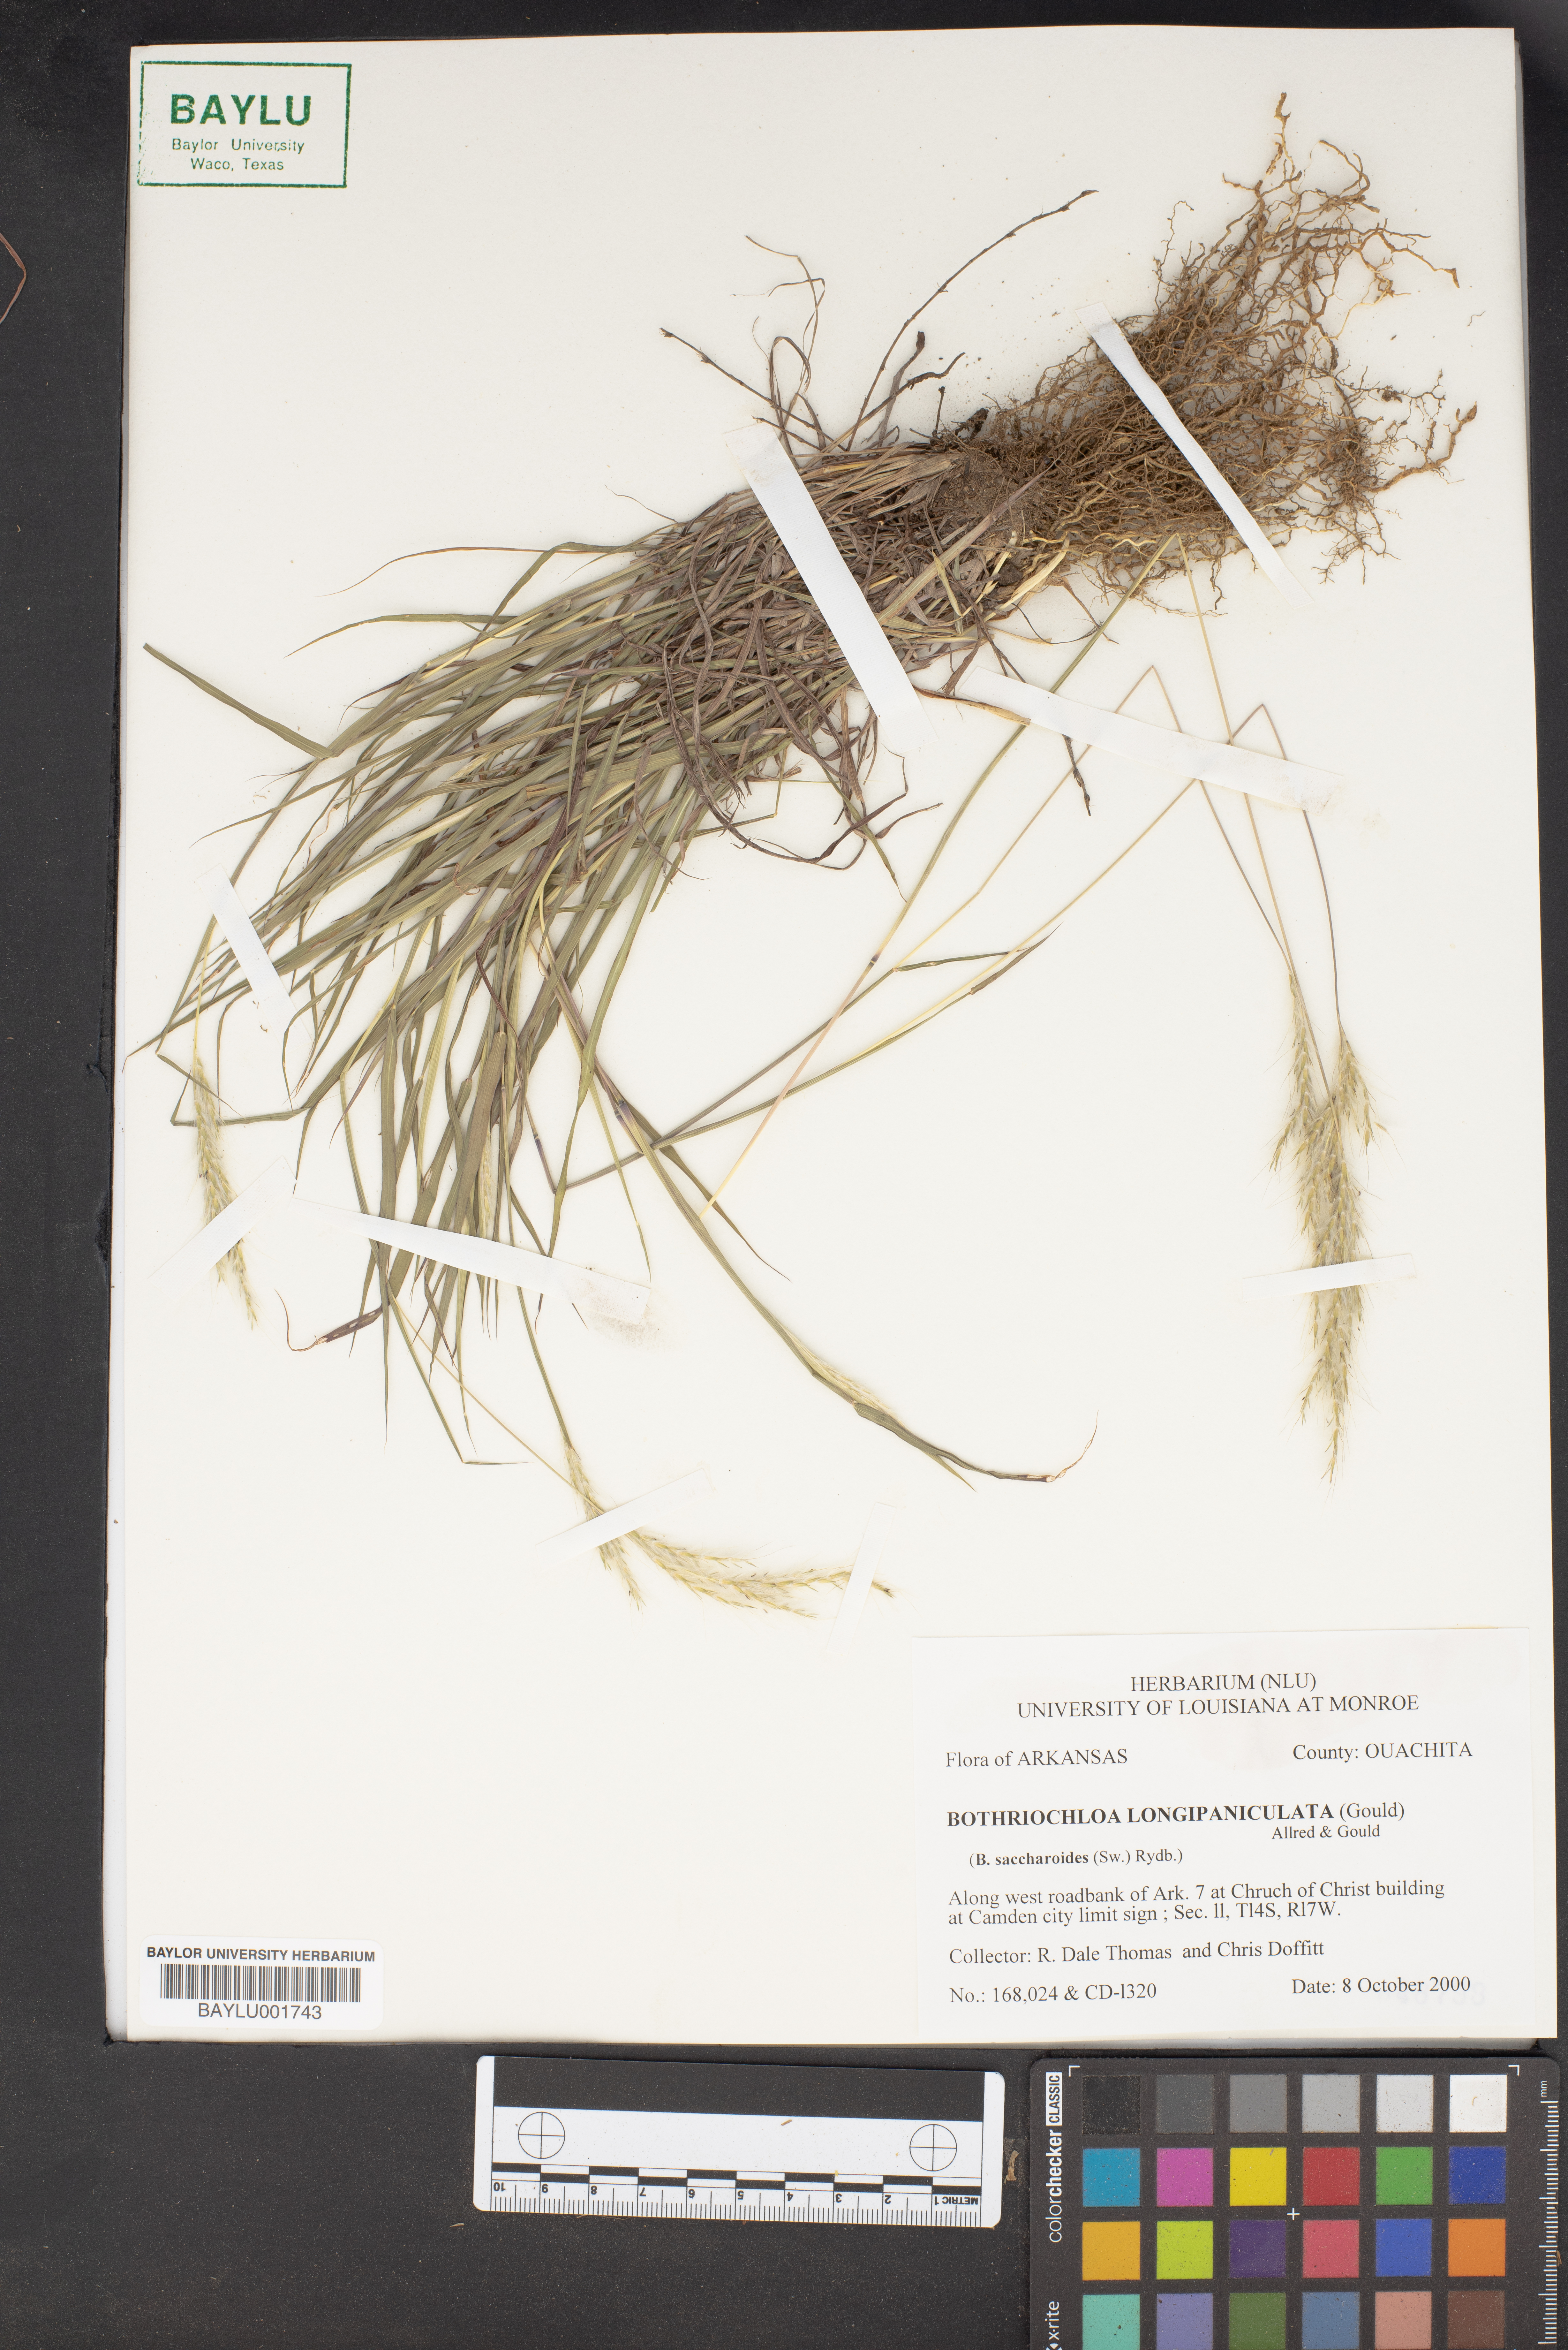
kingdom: Plantae
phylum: Tracheophyta
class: Liliopsida
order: Poales
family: Poaceae
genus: Bothriochloa
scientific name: Bothriochloa longipaniculata
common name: Longspike silver bluestem
